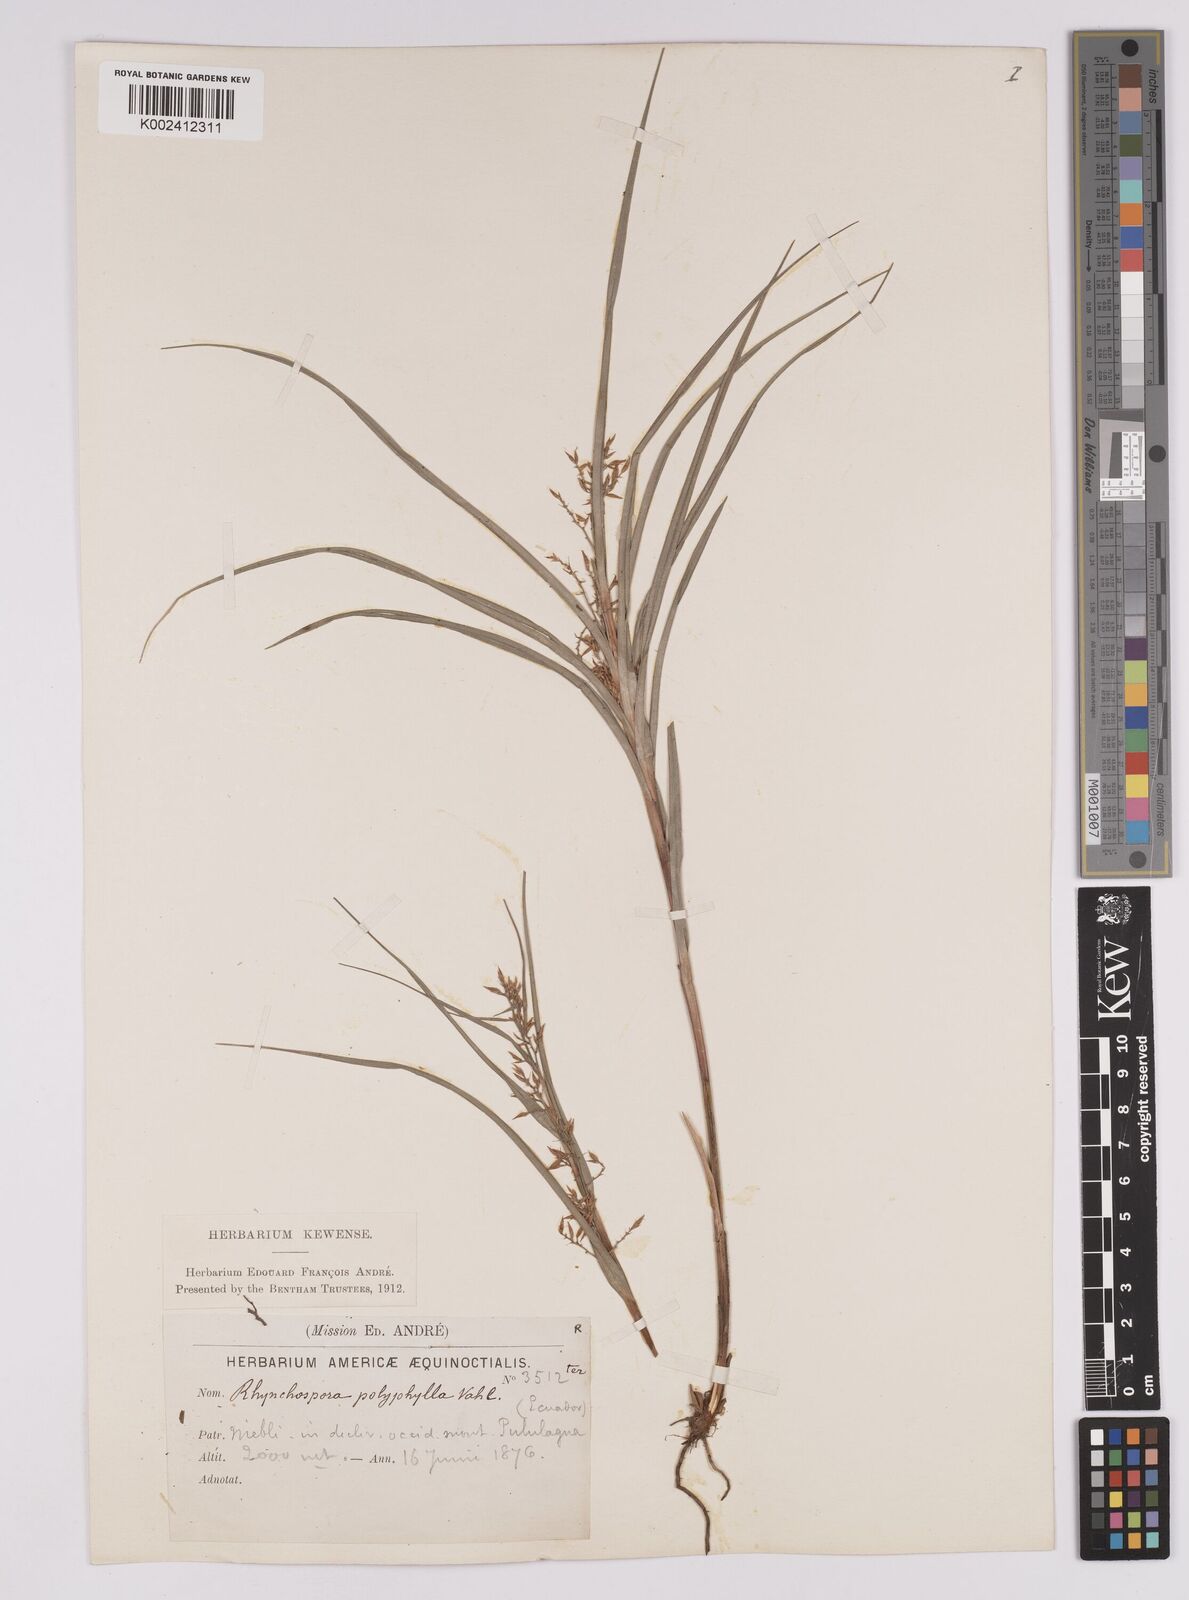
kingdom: Plantae
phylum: Tracheophyta
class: Liliopsida
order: Poales
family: Cyperaceae
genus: Rhynchospora
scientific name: Rhynchospora polyphylla
